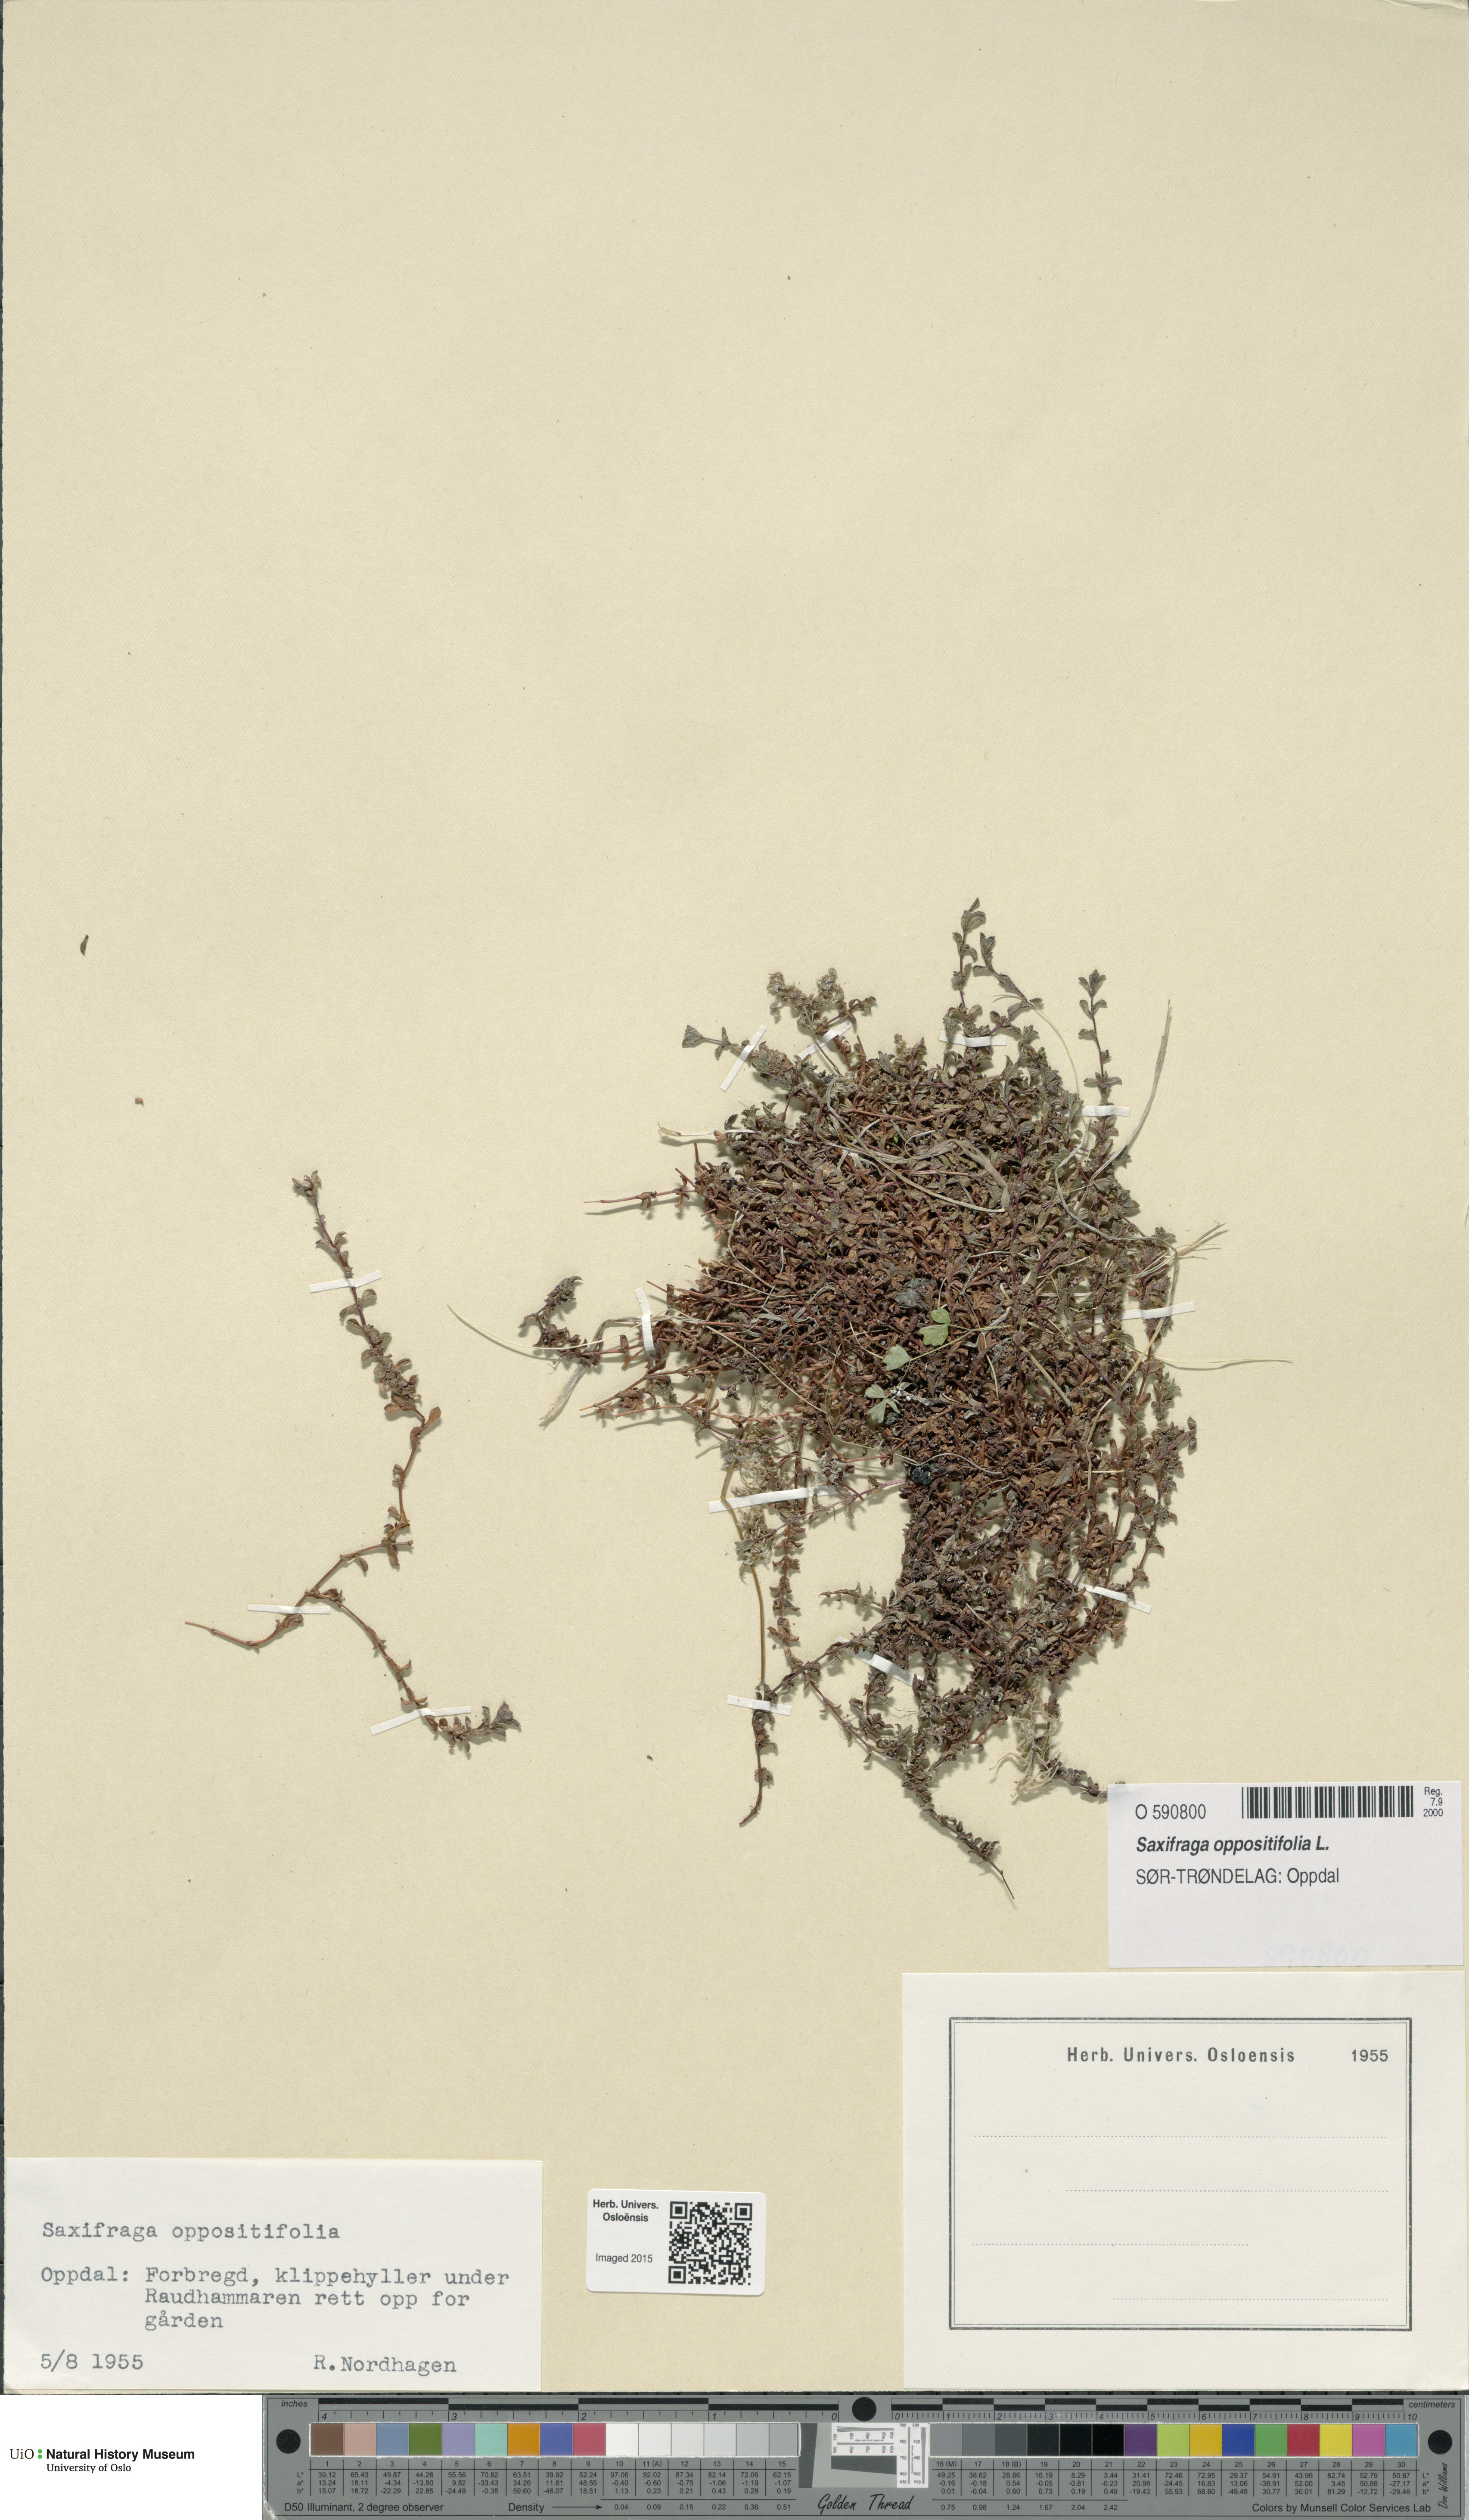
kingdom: Plantae
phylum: Tracheophyta
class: Magnoliopsida
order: Saxifragales
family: Saxifragaceae
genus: Saxifraga
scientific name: Saxifraga oppositifolia
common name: Purple saxifrage
